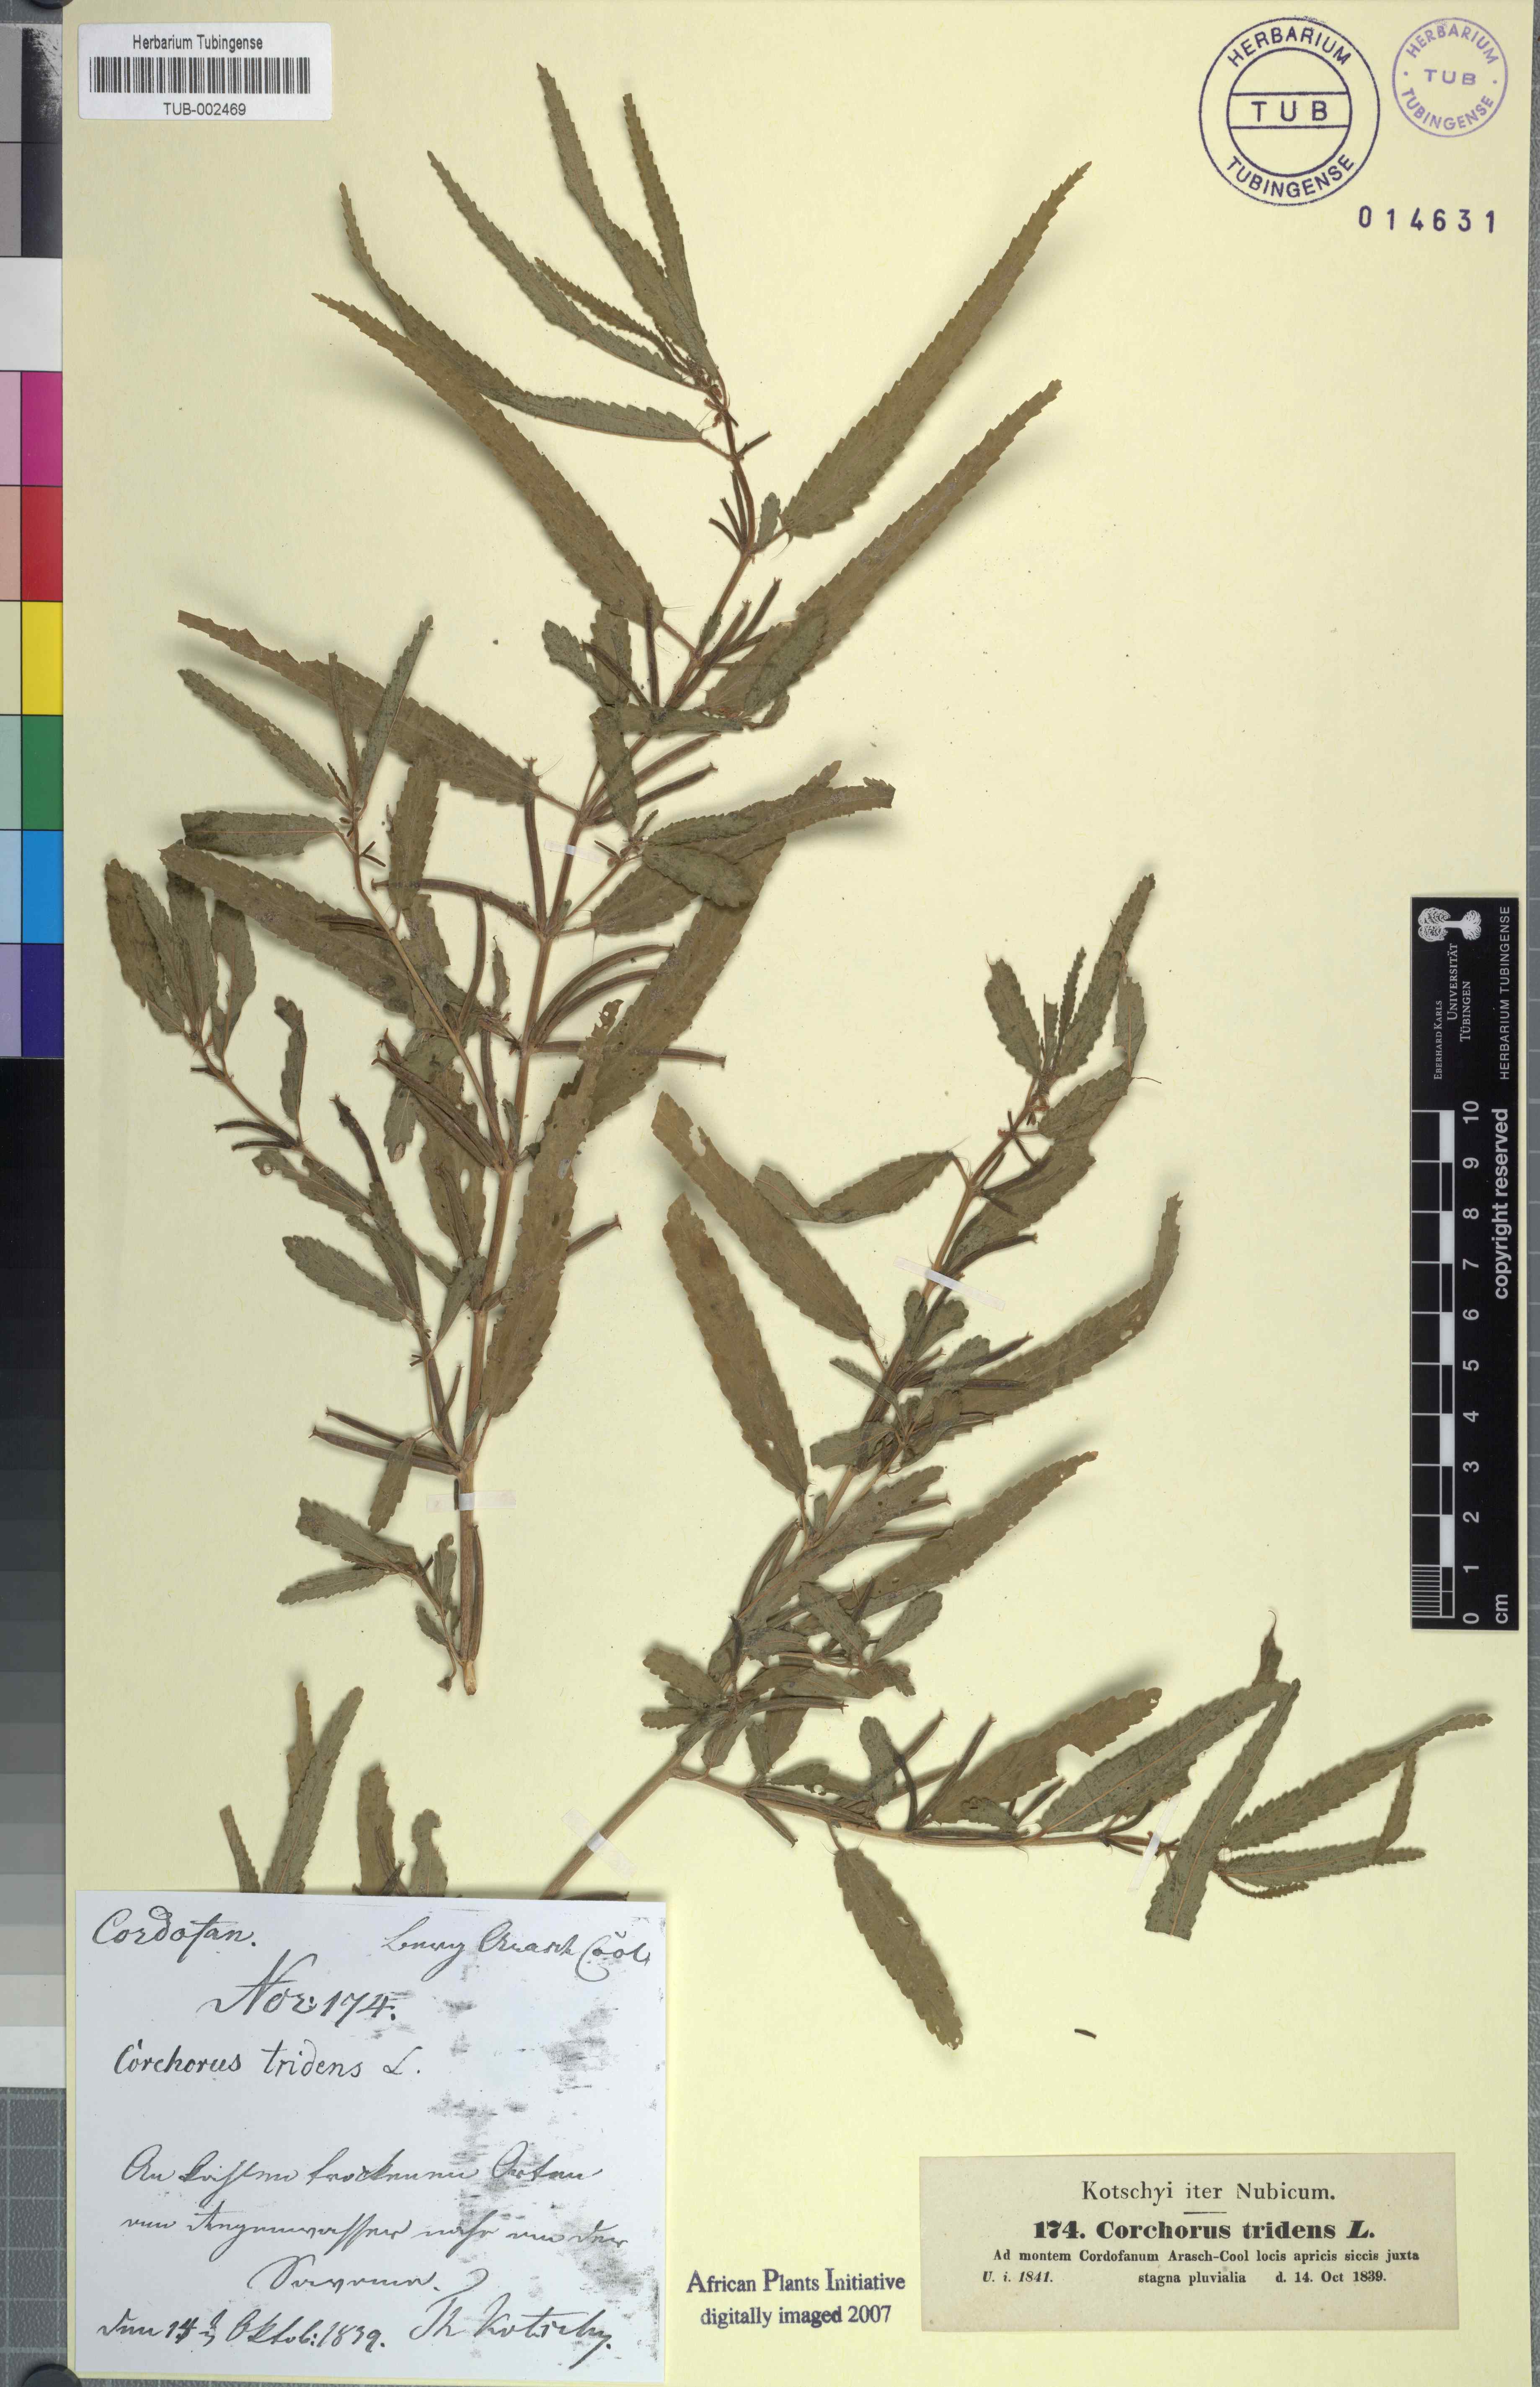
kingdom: Plantae
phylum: Tracheophyta
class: Magnoliopsida
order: Malvales
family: Malvaceae
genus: Corchorus
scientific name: Corchorus tridens
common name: Wild jute
